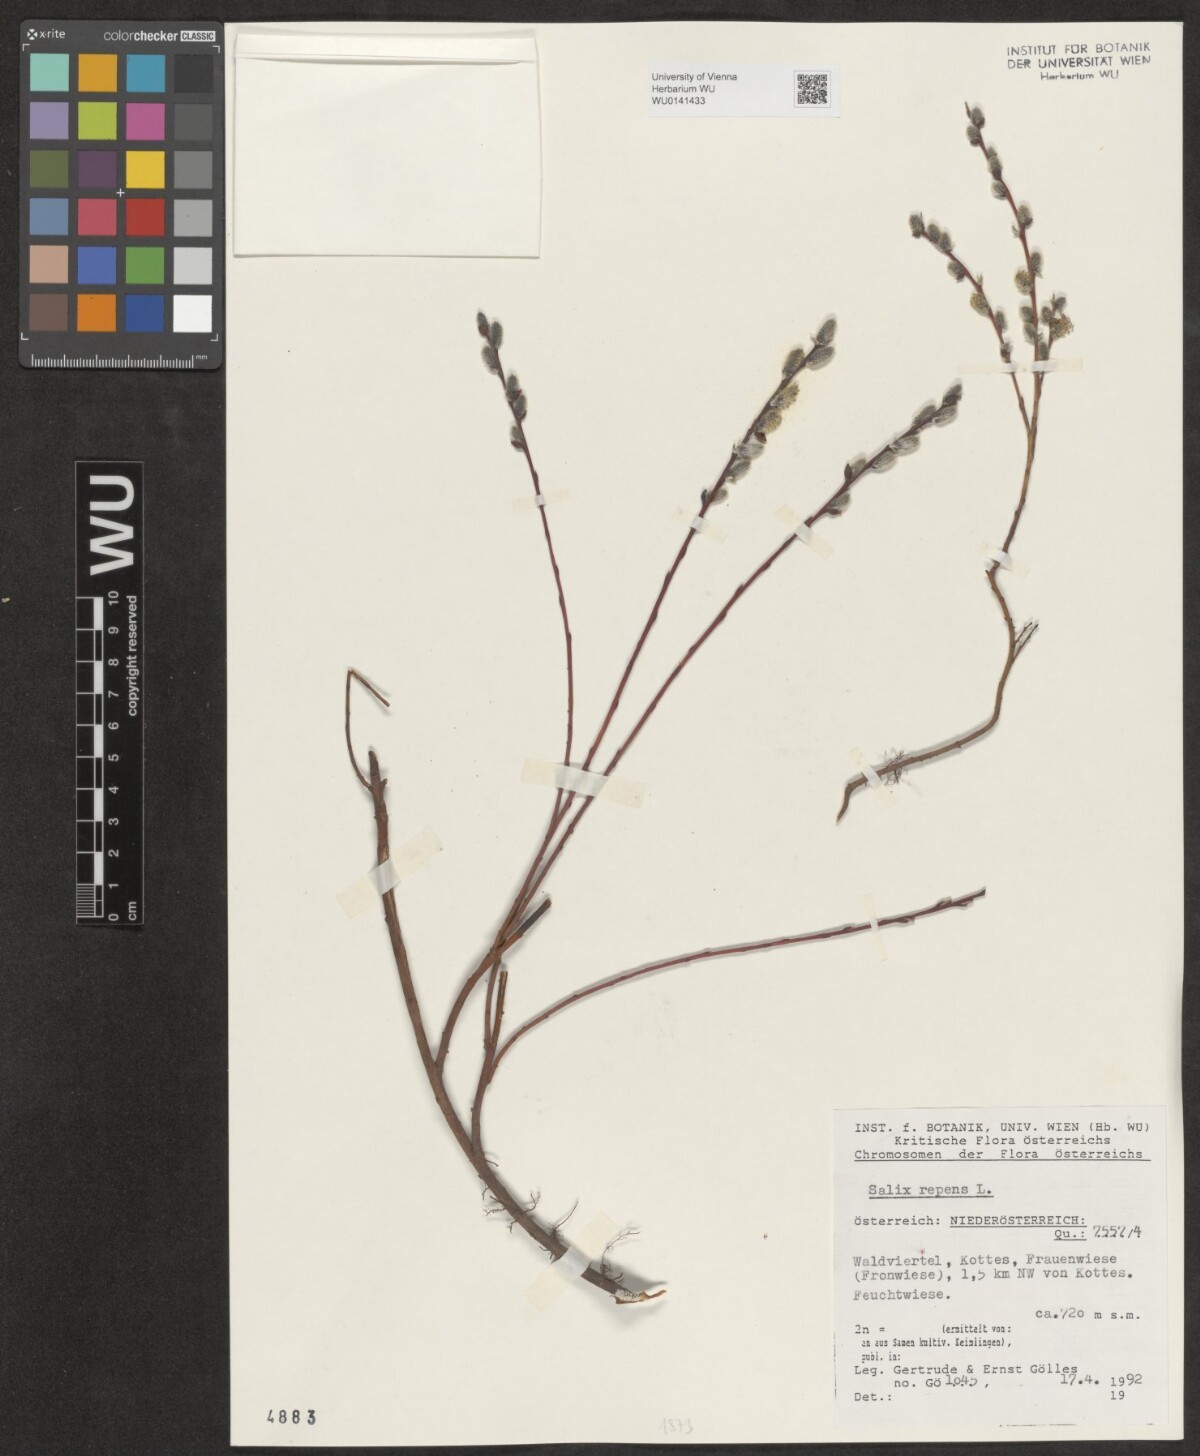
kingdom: Plantae
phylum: Tracheophyta
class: Magnoliopsida
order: Malpighiales
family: Salicaceae
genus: Salix
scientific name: Salix repens
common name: Creeping willow
